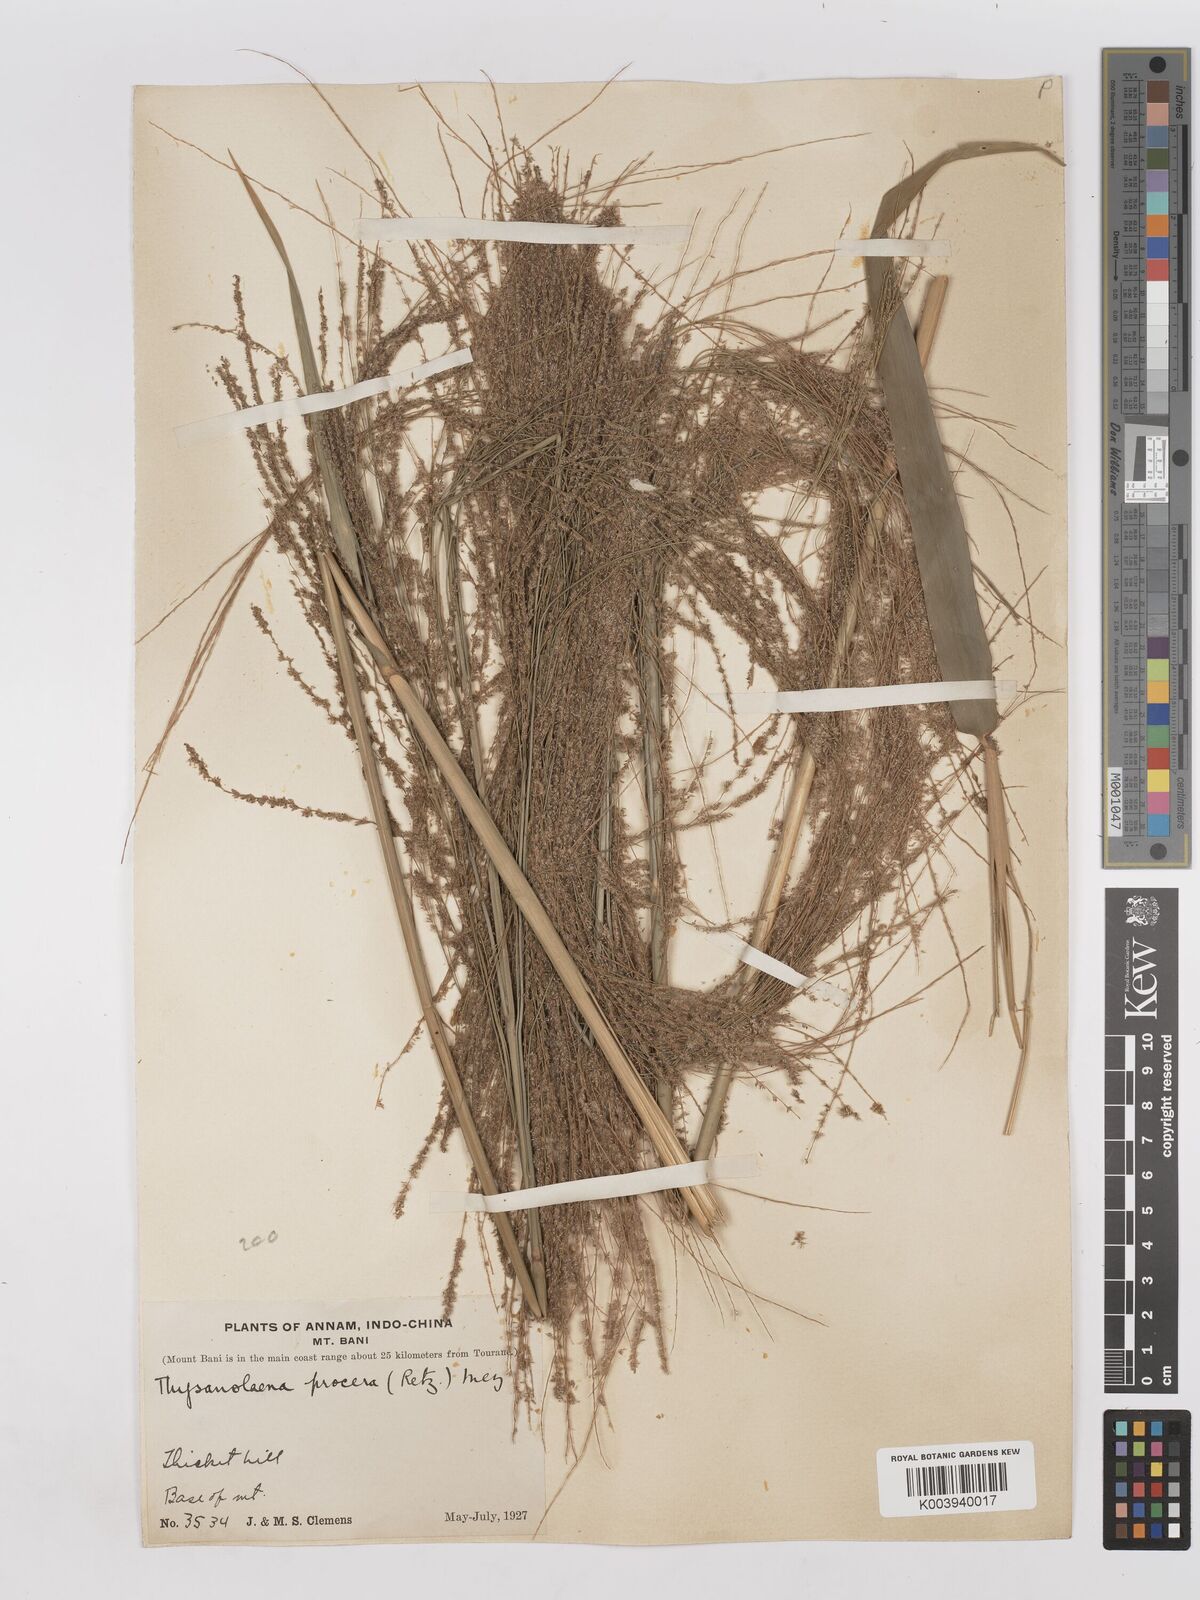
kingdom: Plantae
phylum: Tracheophyta
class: Liliopsida
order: Poales
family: Poaceae
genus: Thysanolaena
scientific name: Thysanolaena latifolia
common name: Tiger grass
